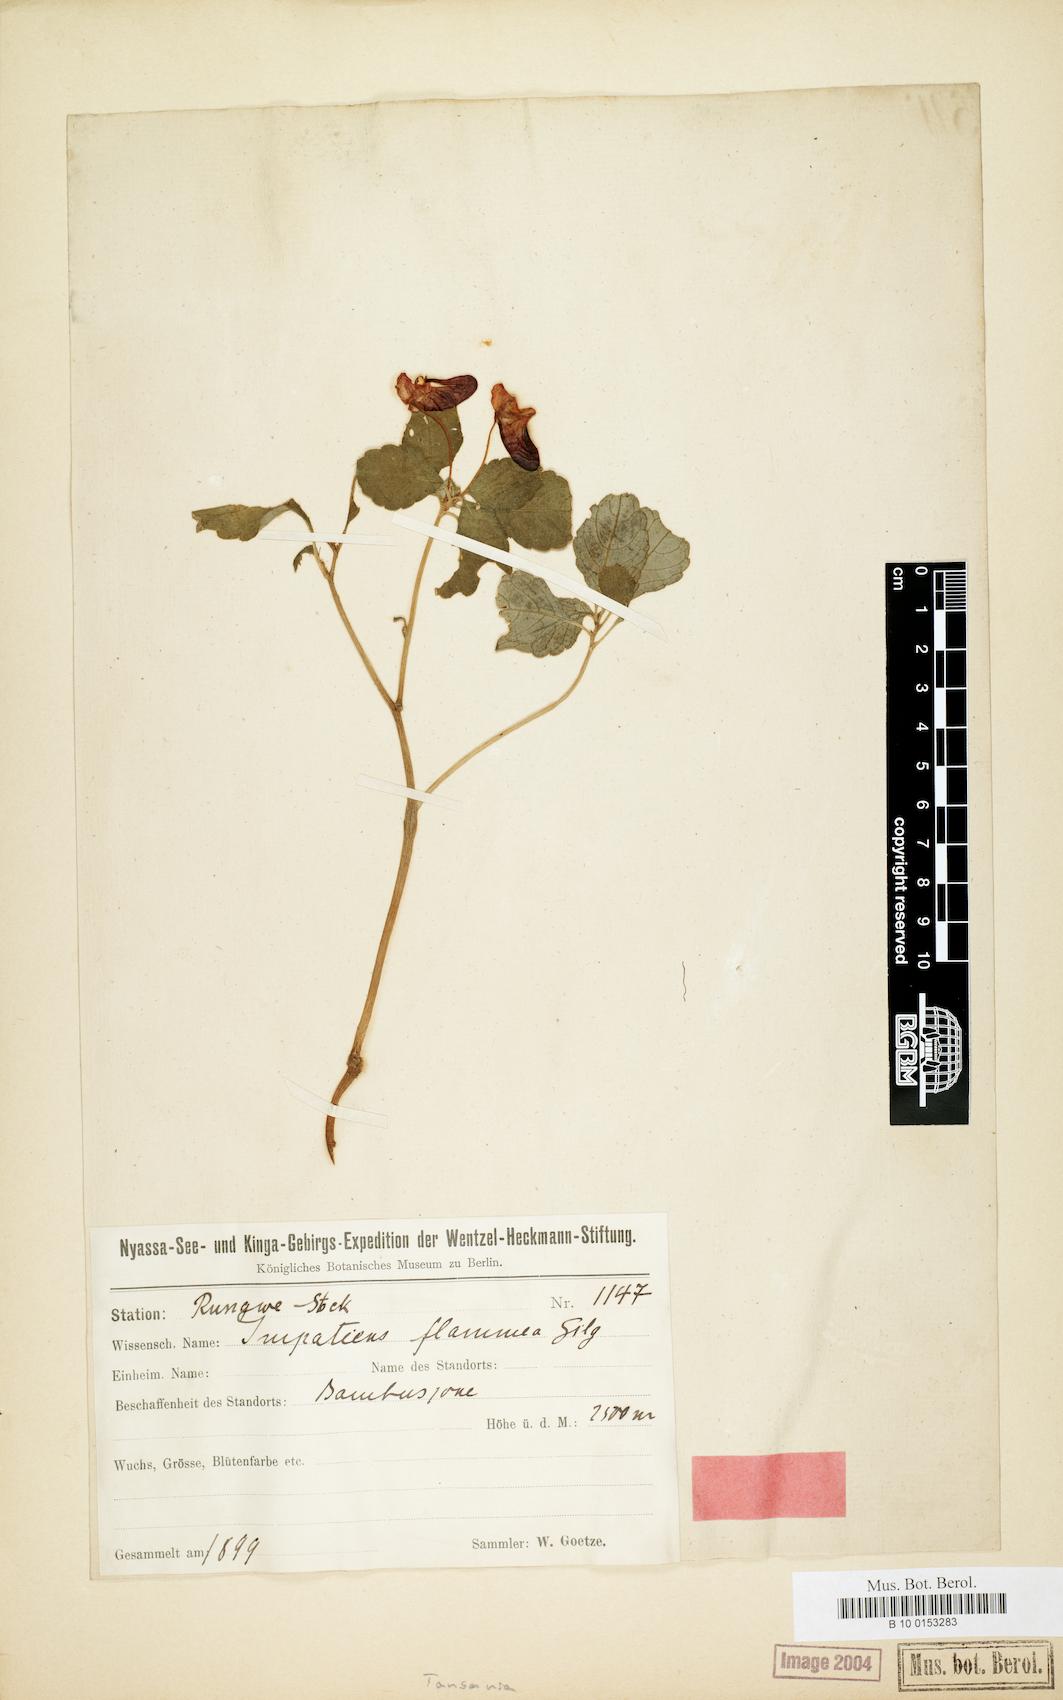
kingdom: Plantae
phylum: Tracheophyta
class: Magnoliopsida
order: Ericales
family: Balsaminaceae
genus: Impatiens
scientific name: Impatiens flammea
